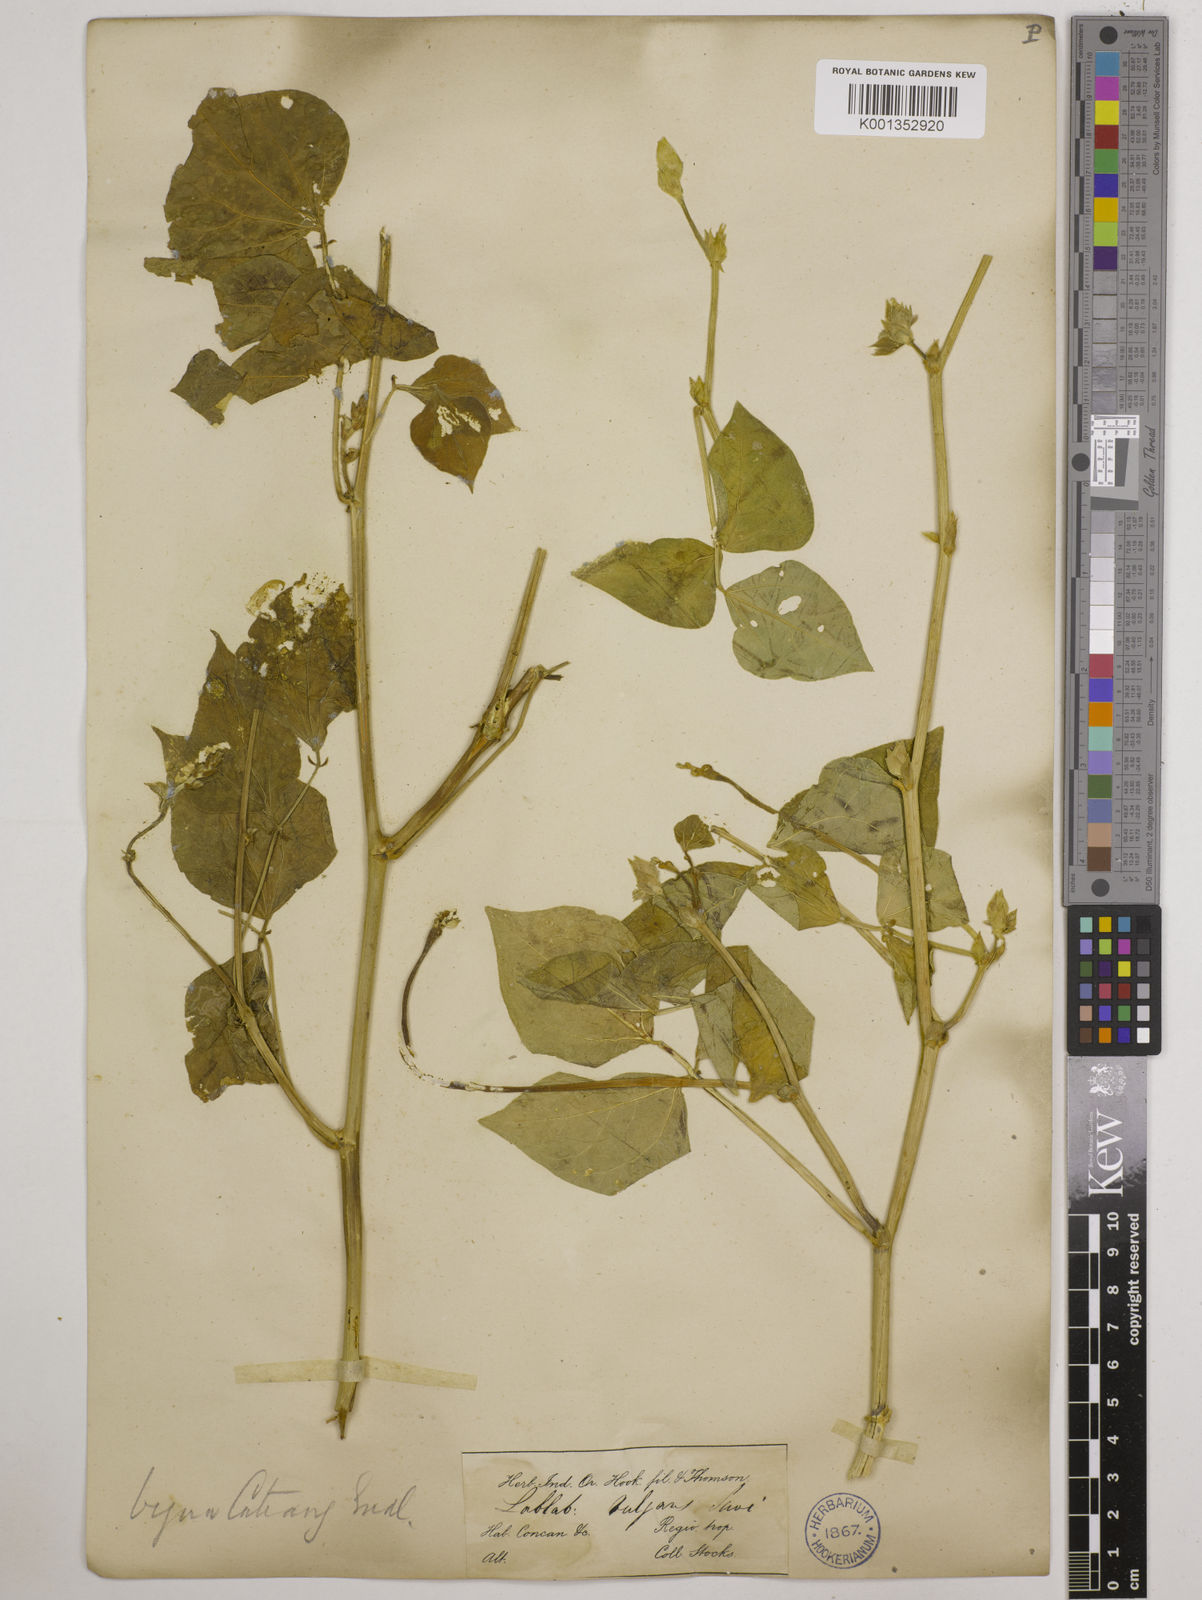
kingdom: Plantae
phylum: Tracheophyta
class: Magnoliopsida
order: Fabales
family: Fabaceae
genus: Lablab
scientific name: Lablab purpureus
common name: Lablab-bean
